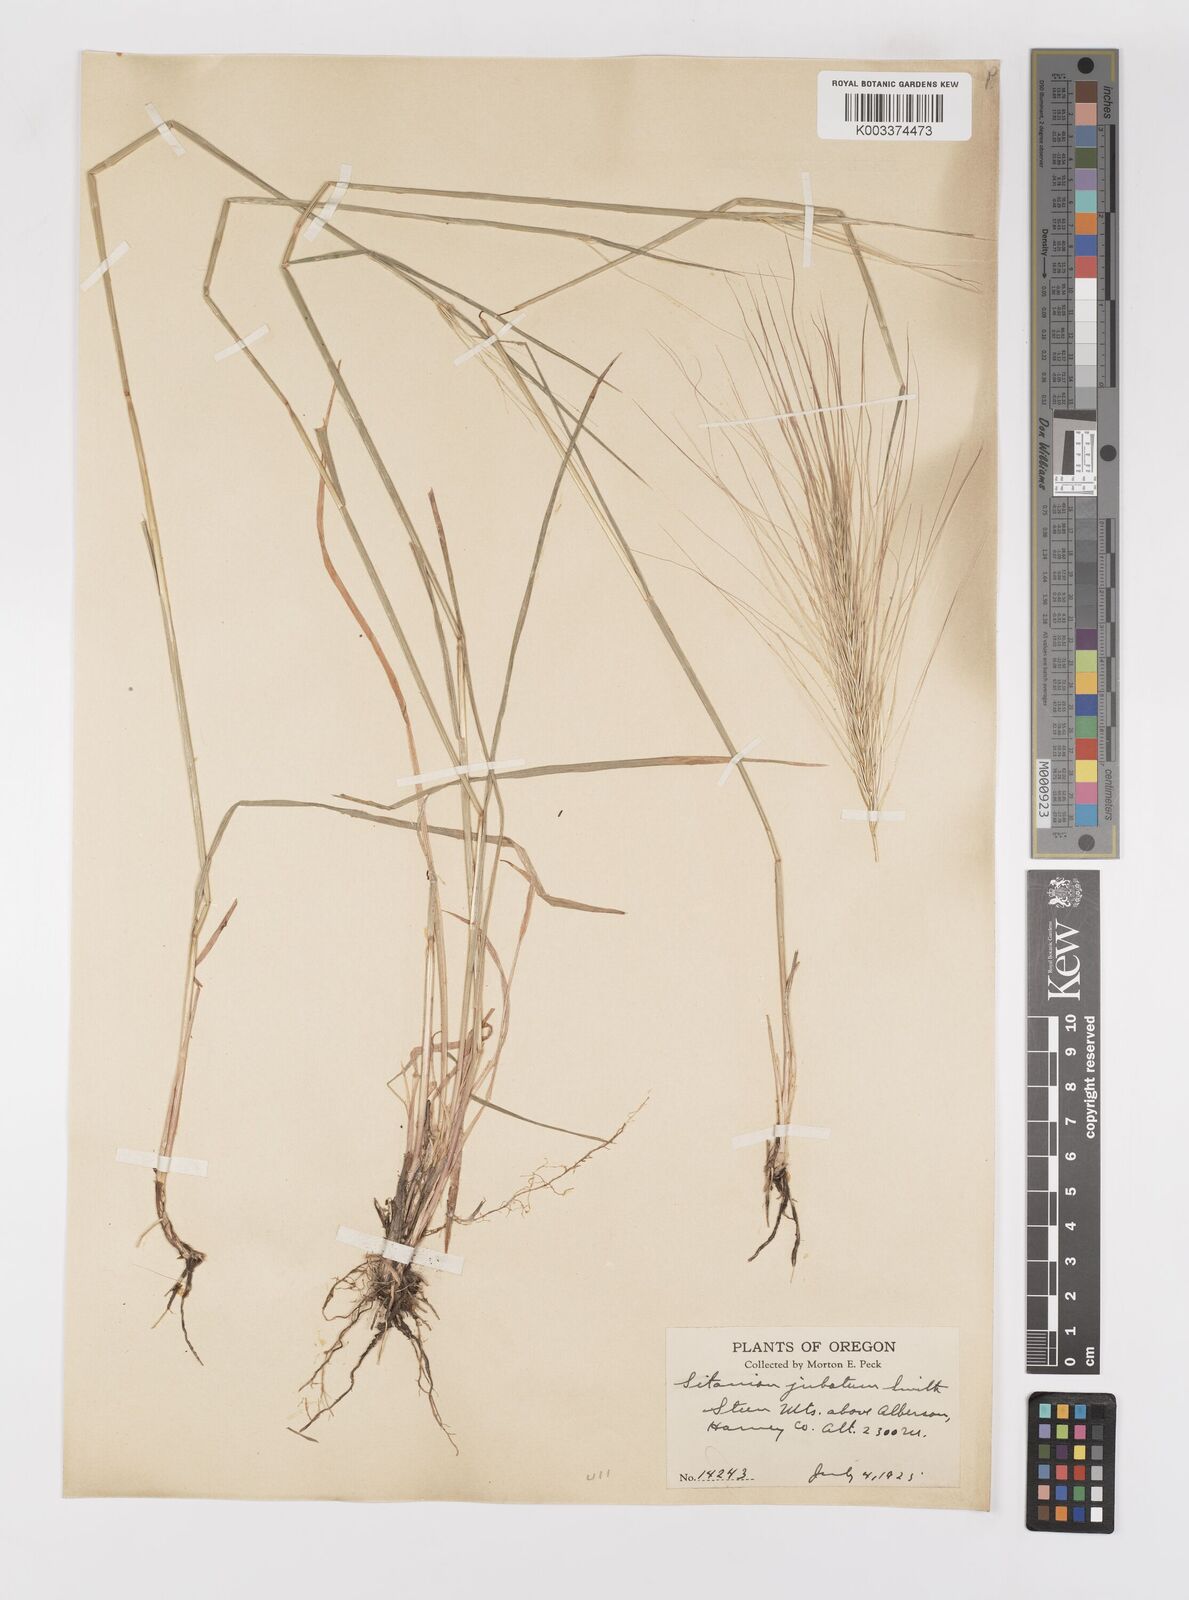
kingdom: Plantae
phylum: Tracheophyta
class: Liliopsida
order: Poales
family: Poaceae
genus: Elymus
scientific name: Elymus multisetus
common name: Big squirreltail
